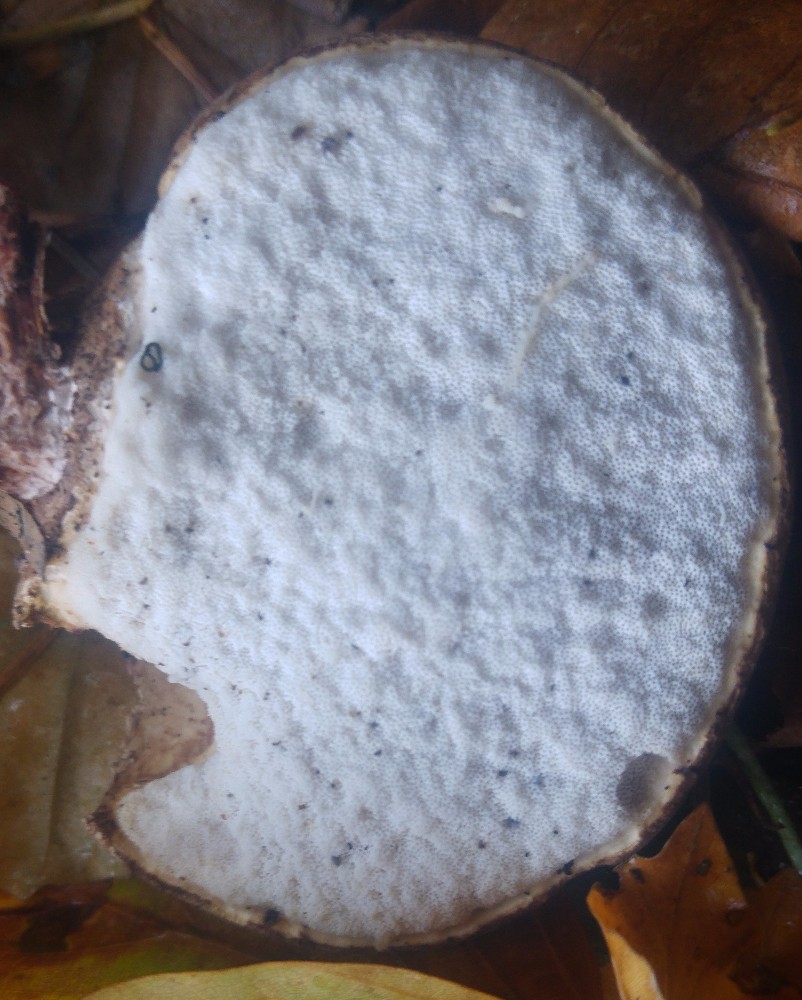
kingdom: Fungi
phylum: Basidiomycota
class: Agaricomycetes
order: Polyporales
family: Fomitopsidaceae
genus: Fomitopsis
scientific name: Fomitopsis betulina
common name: birkeporesvamp
